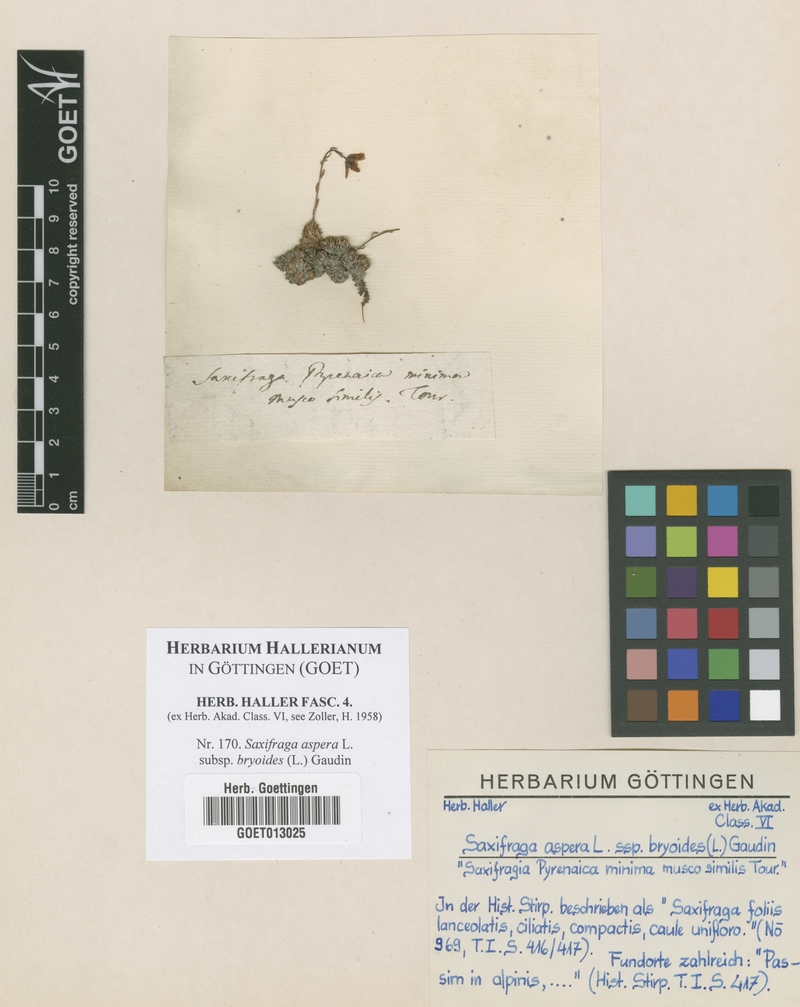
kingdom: Plantae
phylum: Tracheophyta
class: Magnoliopsida
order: Saxifragales
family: Saxifragaceae
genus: Saxifraga
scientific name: Saxifraga bryoides
